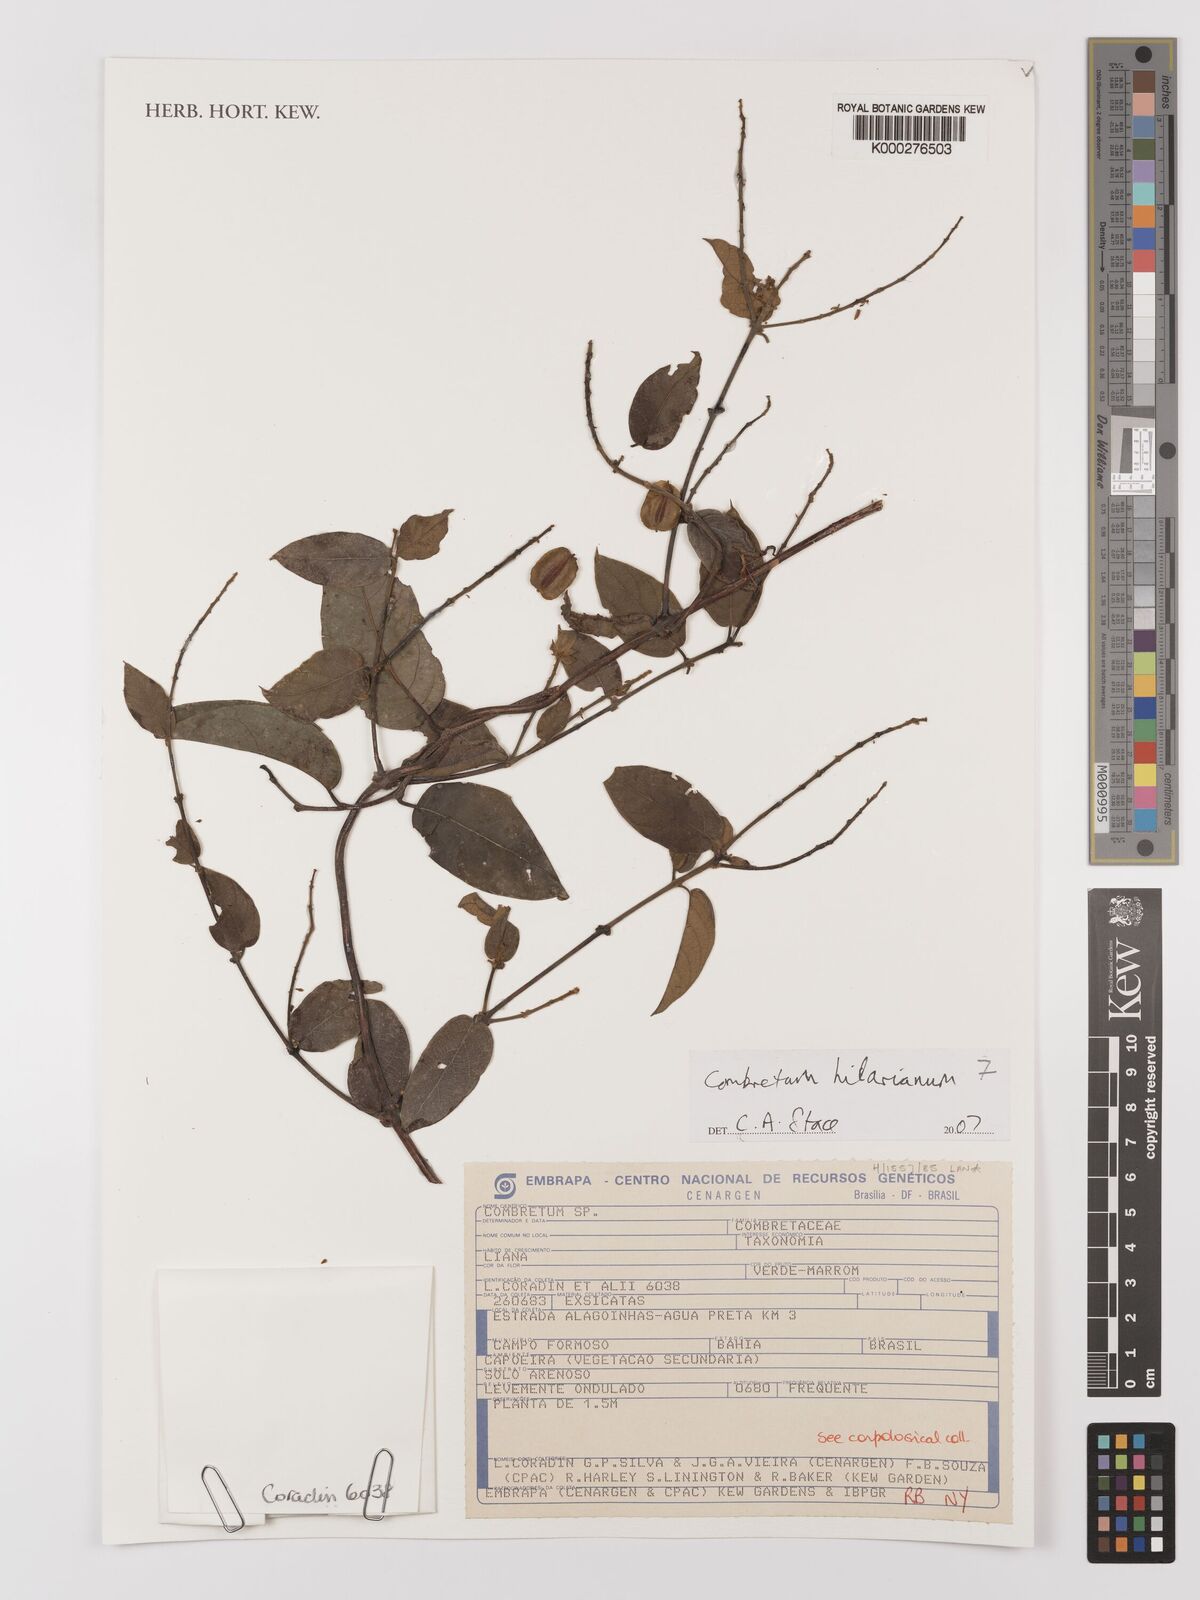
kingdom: Plantae
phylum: Tracheophyta
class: Magnoliopsida
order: Myrtales
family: Combretaceae
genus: Combretum
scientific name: Combretum hilarianum
